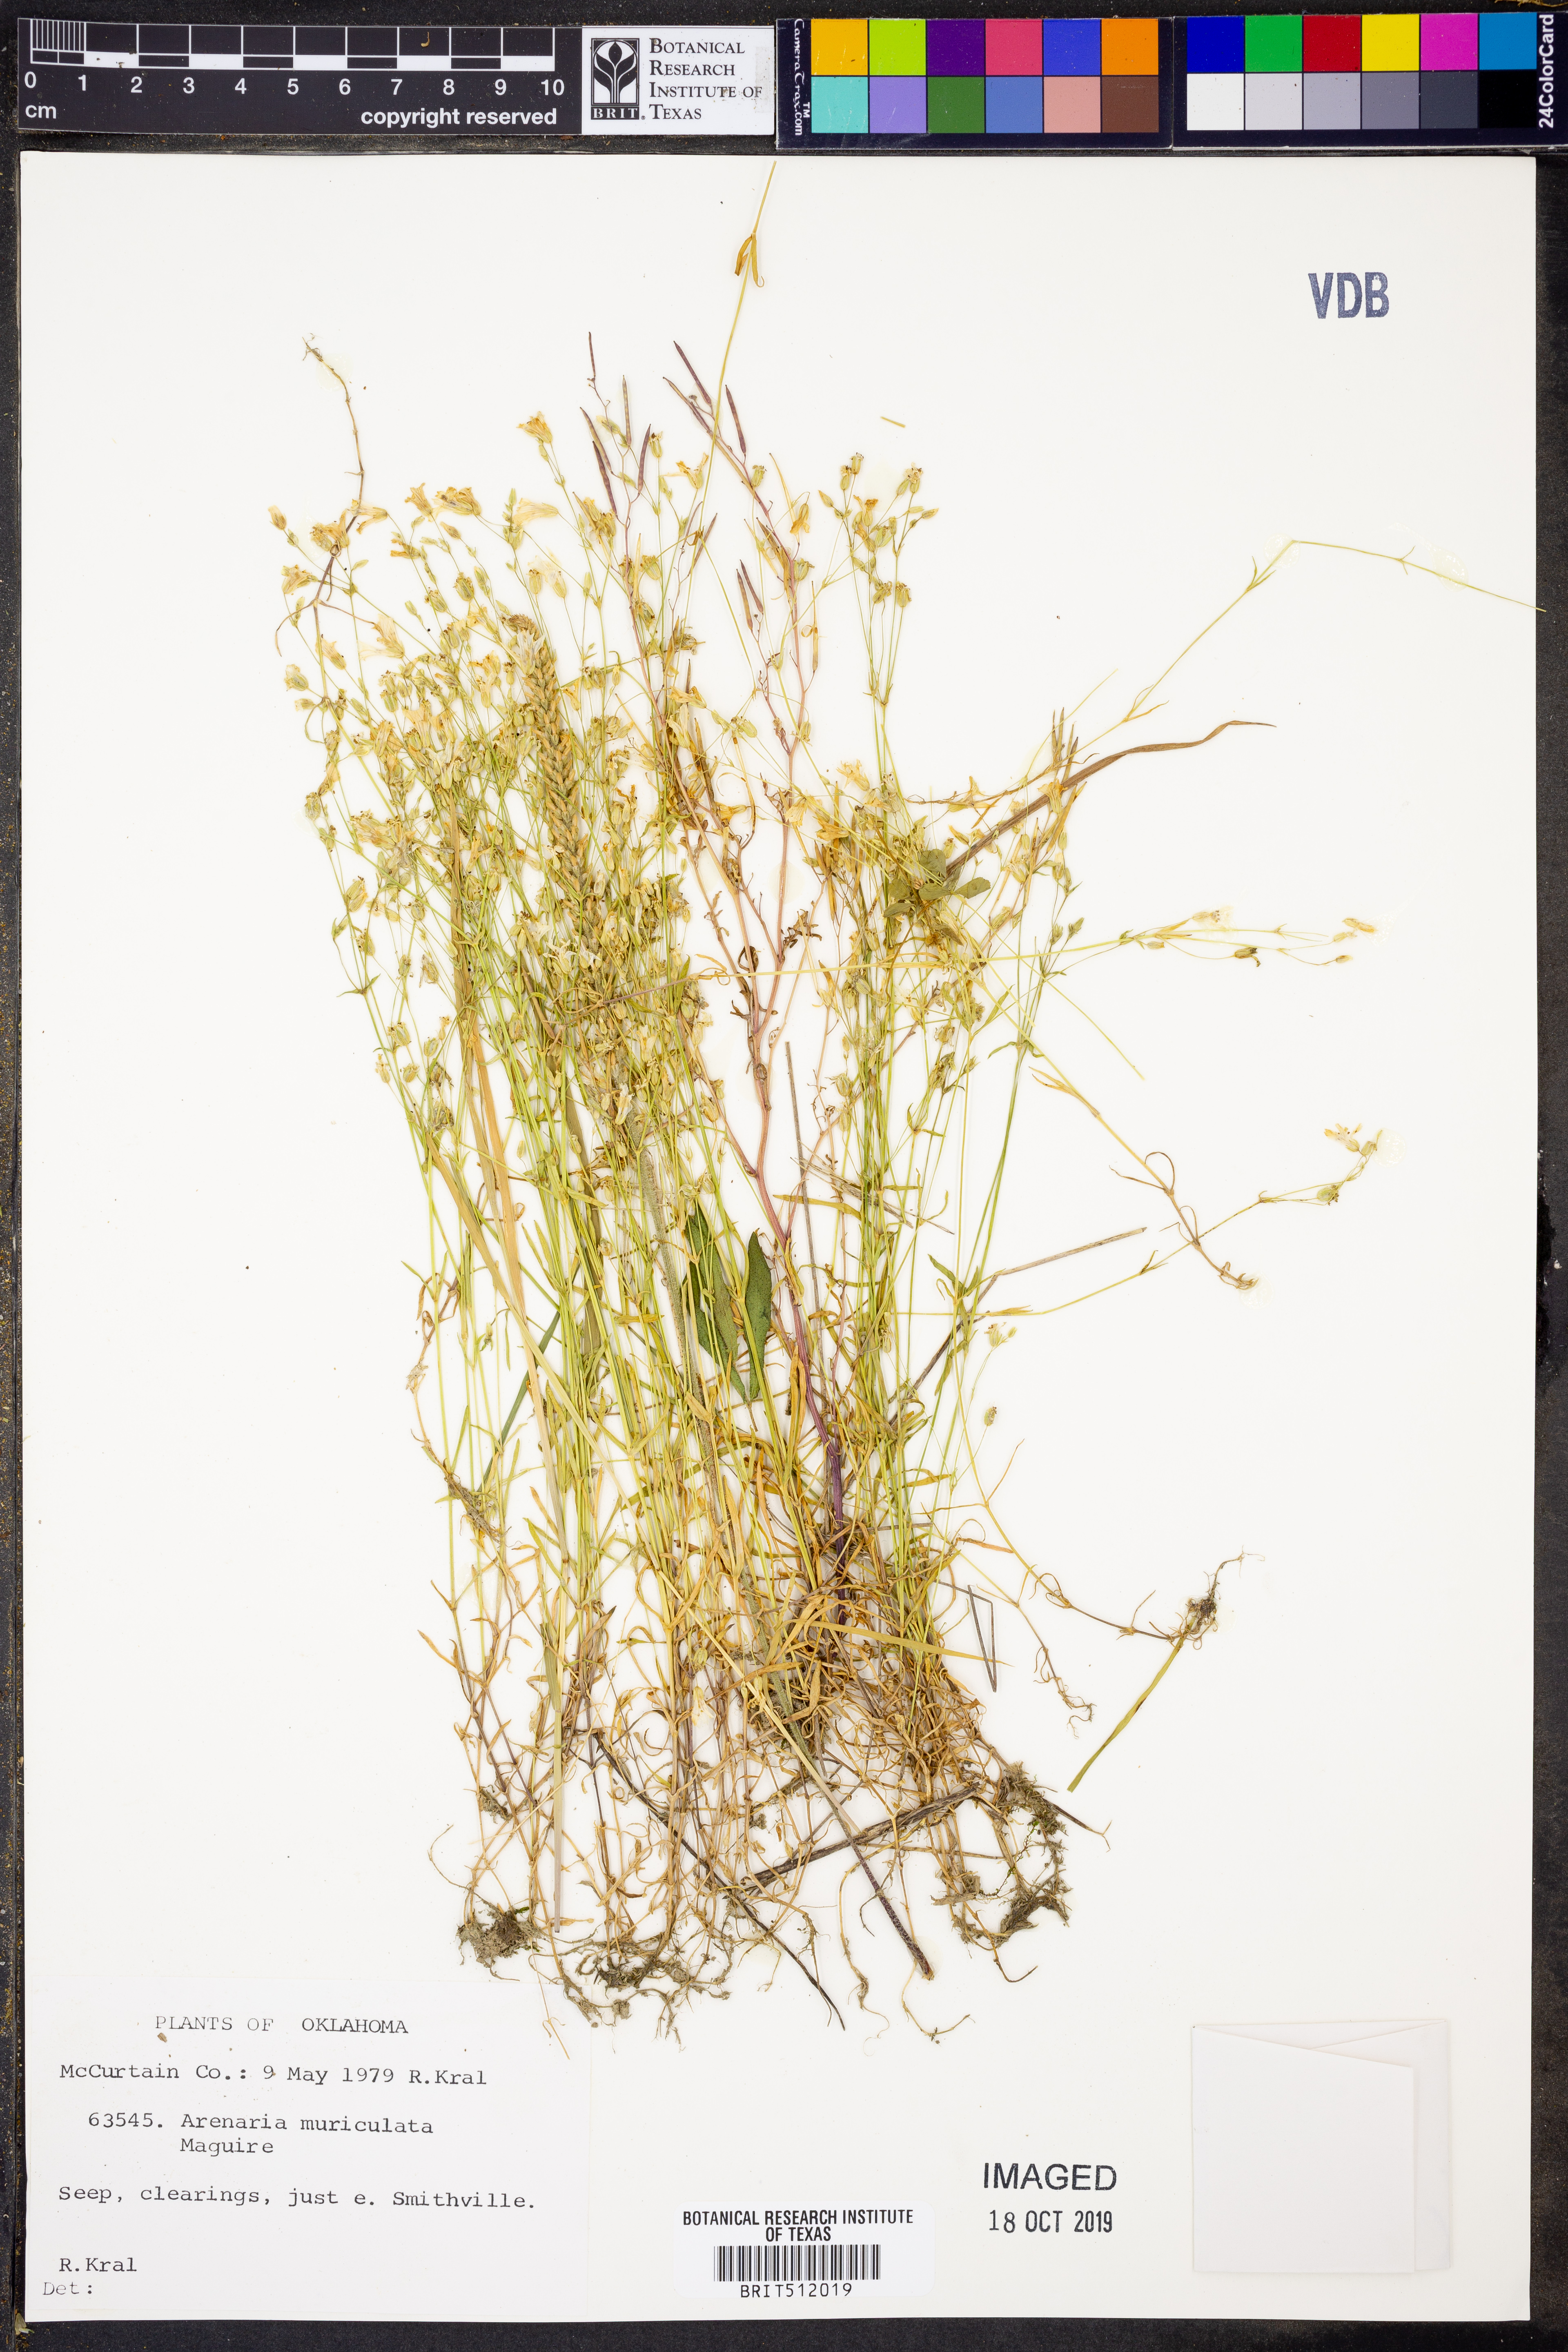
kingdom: Plantae
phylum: Tracheophyta
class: Magnoliopsida
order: Caryophyllales
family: Caryophyllaceae
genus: Mononeuria
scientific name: Mononeuria muscorum
